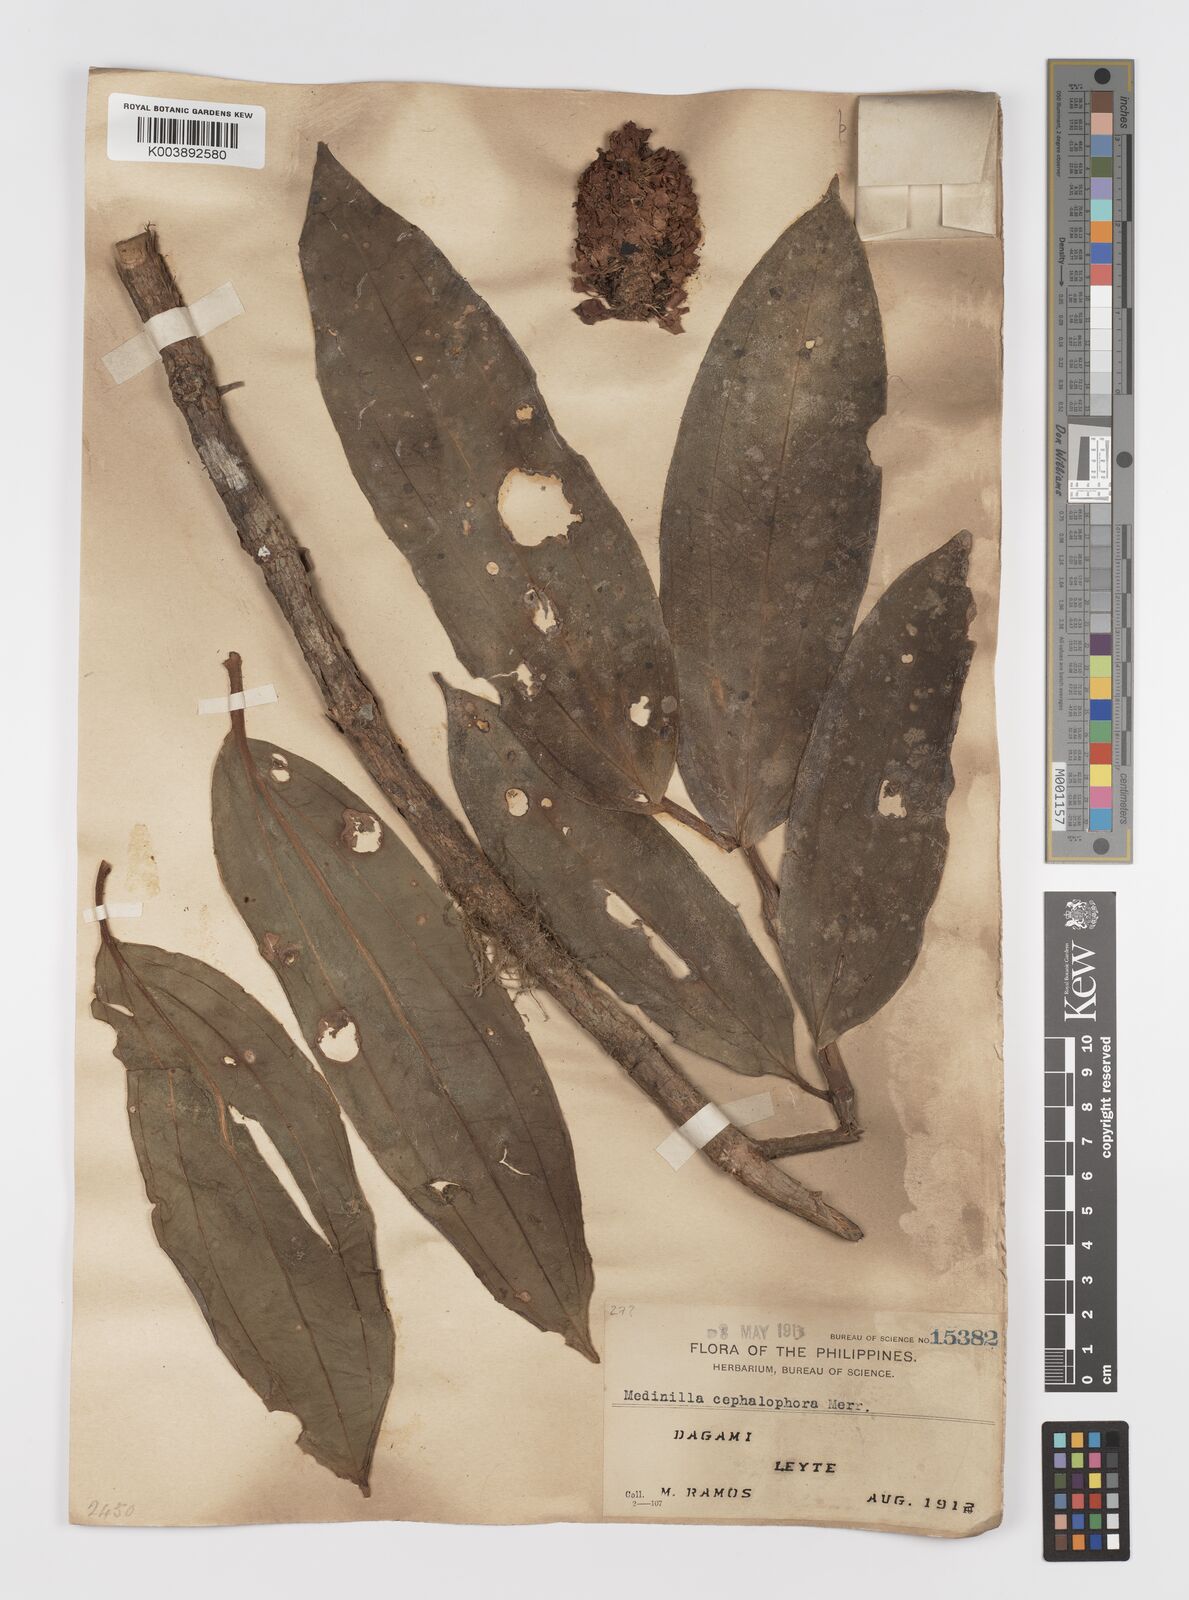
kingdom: Plantae
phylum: Tracheophyta
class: Magnoliopsida
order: Myrtales
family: Melastomataceae
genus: Medinilla
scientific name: Medinilla cephalophora
